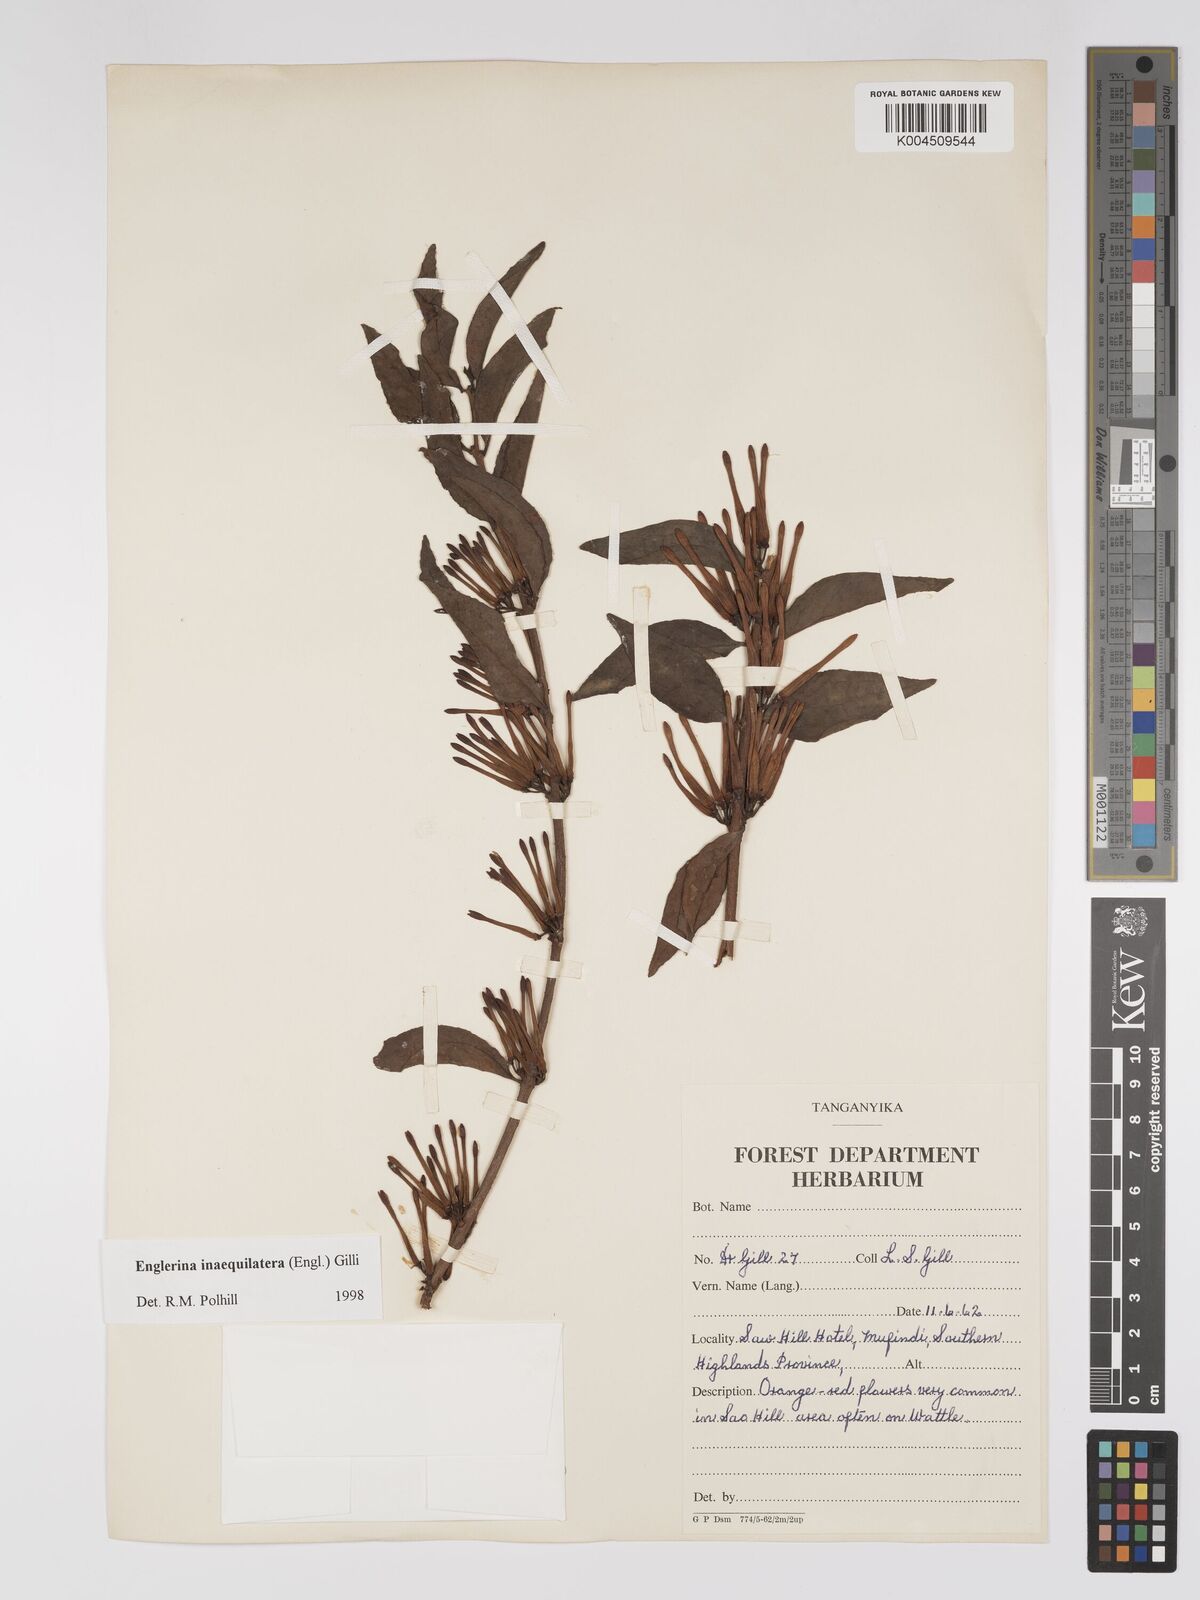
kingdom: Plantae
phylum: Tracheophyta
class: Magnoliopsida
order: Santalales
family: Loranthaceae
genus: Englerina
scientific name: Englerina inaequilatera
